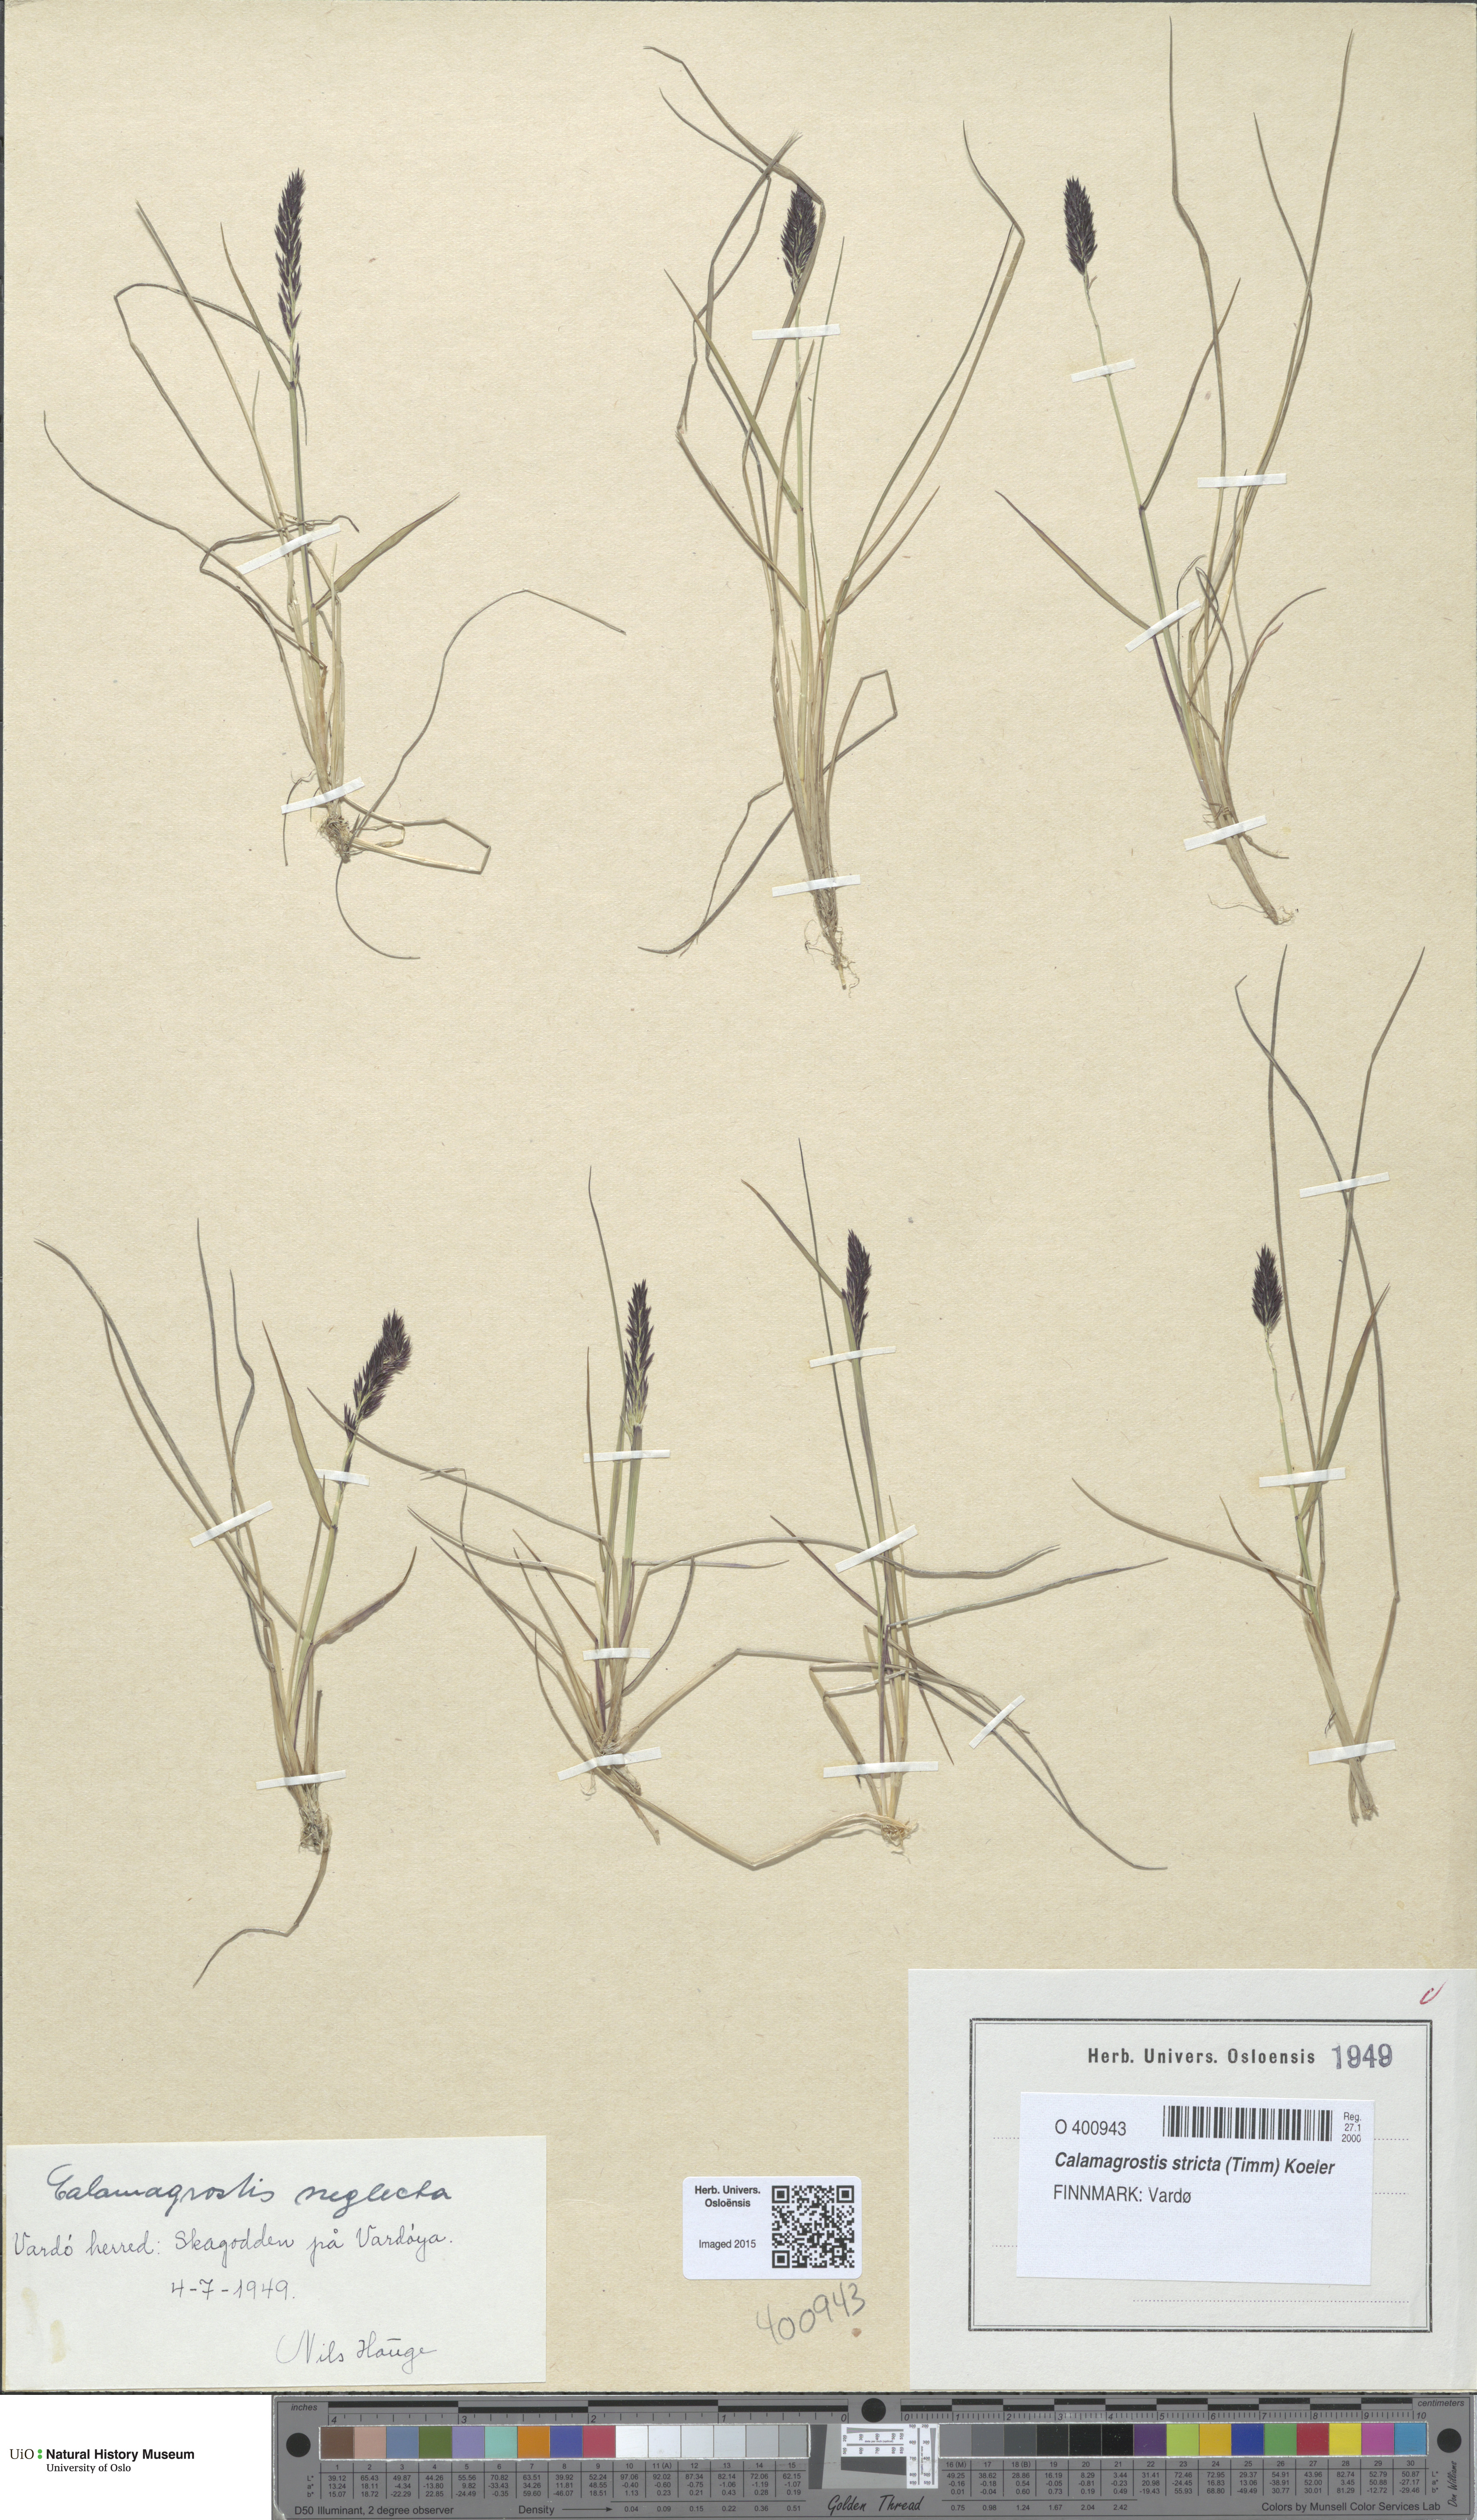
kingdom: Plantae
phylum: Tracheophyta
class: Liliopsida
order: Poales
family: Poaceae
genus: Achnatherum
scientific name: Achnatherum calamagrostis
